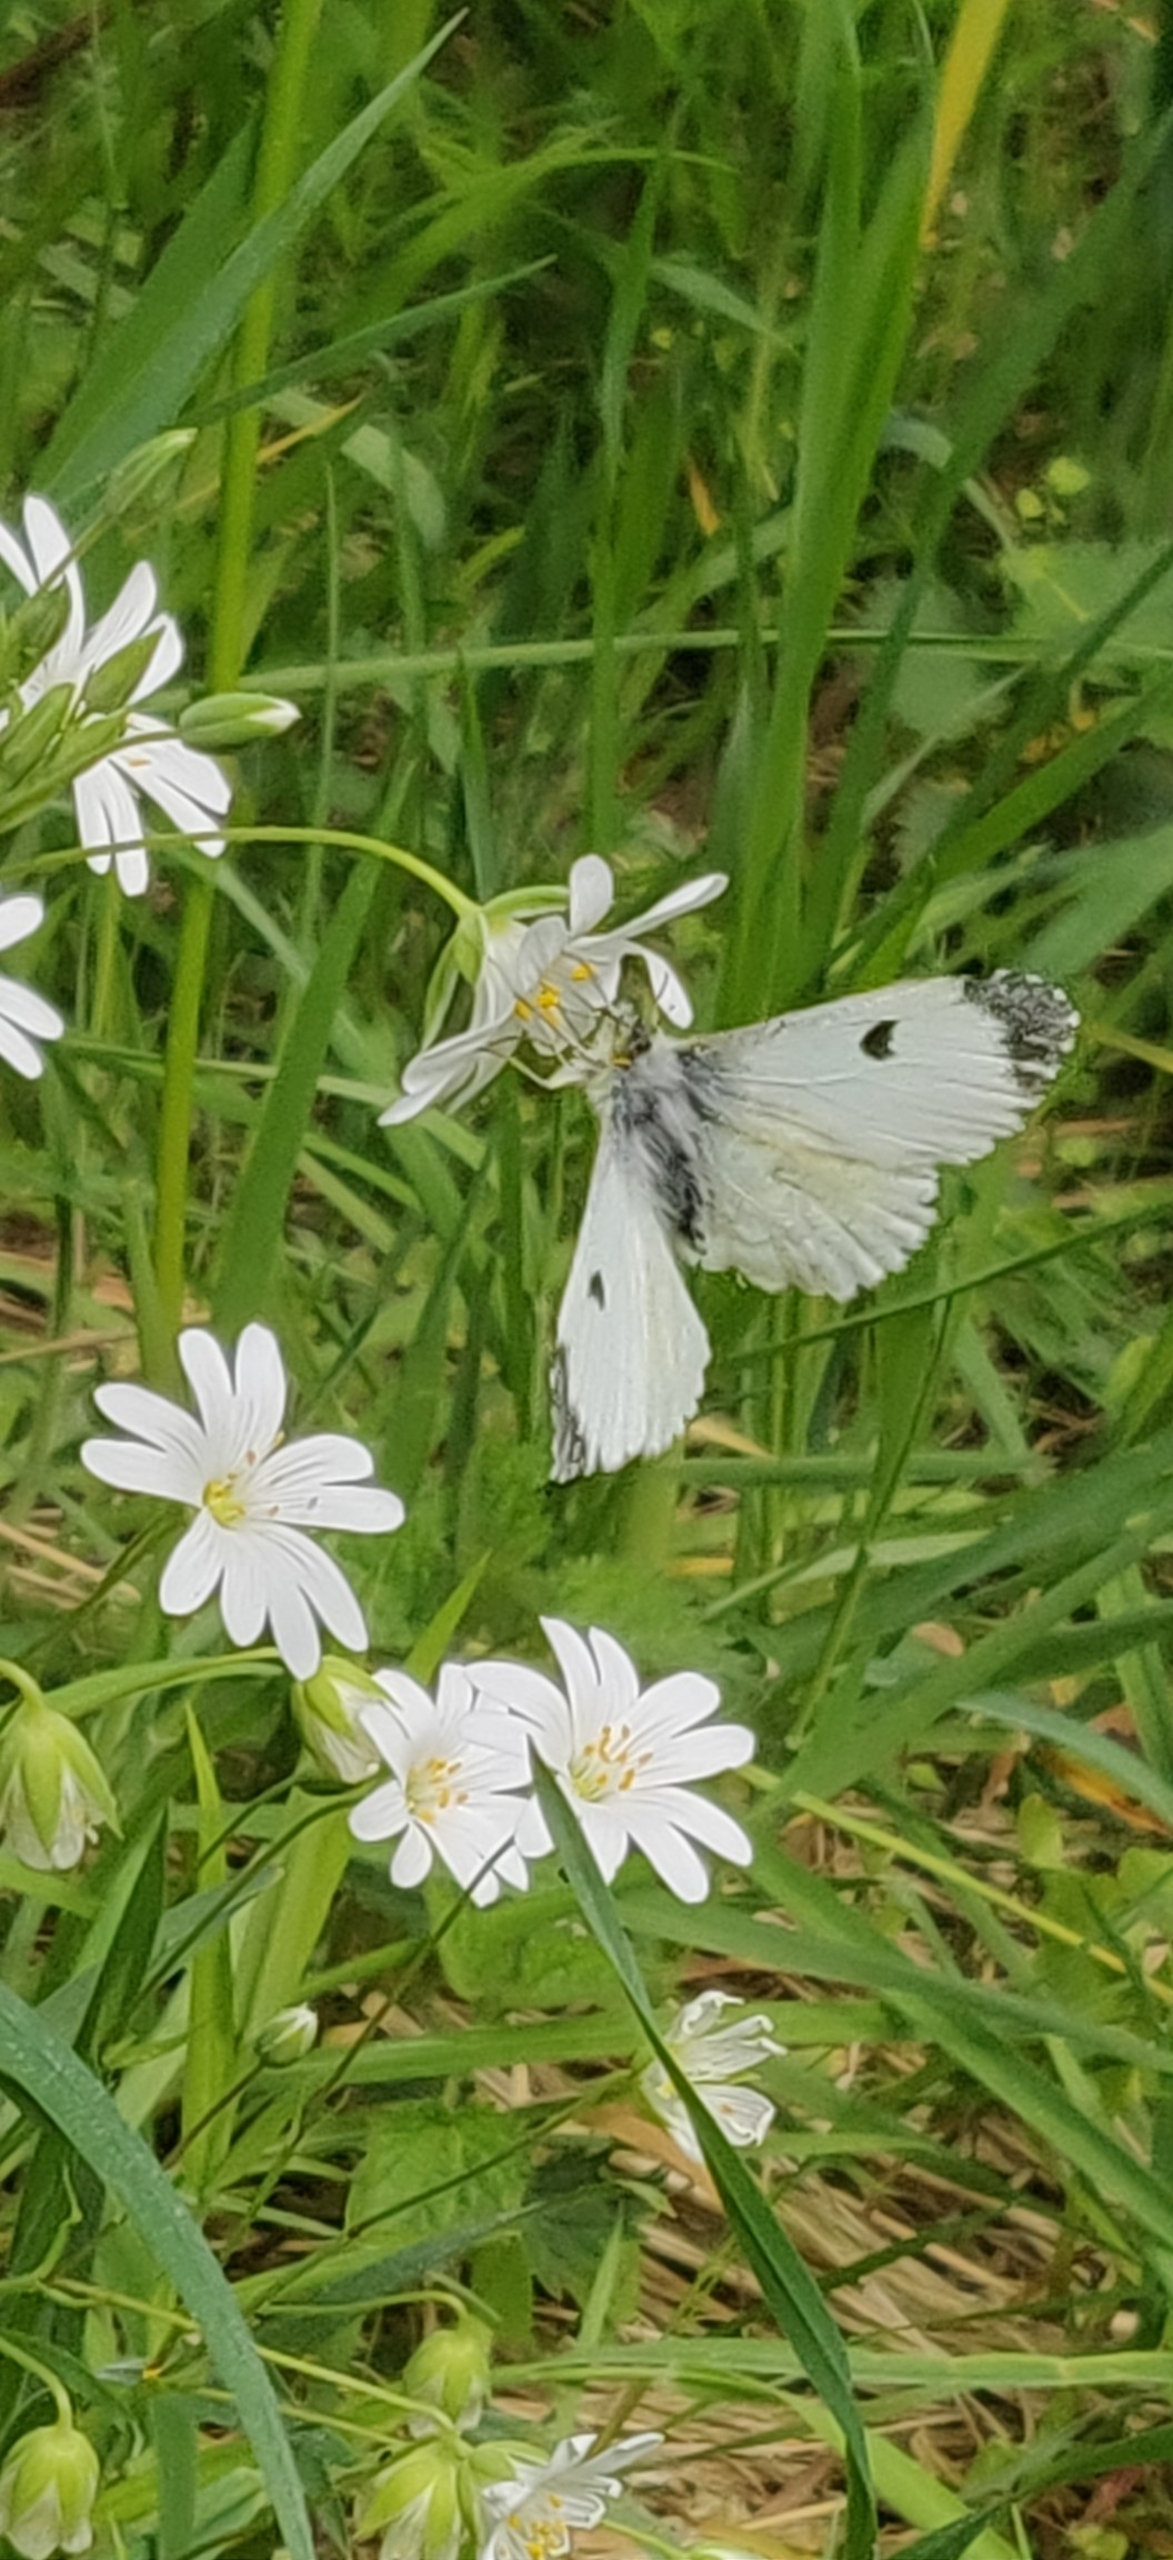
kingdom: Animalia
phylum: Arthropoda
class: Insecta
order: Lepidoptera
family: Pieridae
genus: Anthocharis
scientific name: Anthocharis cardamines
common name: Aurora
